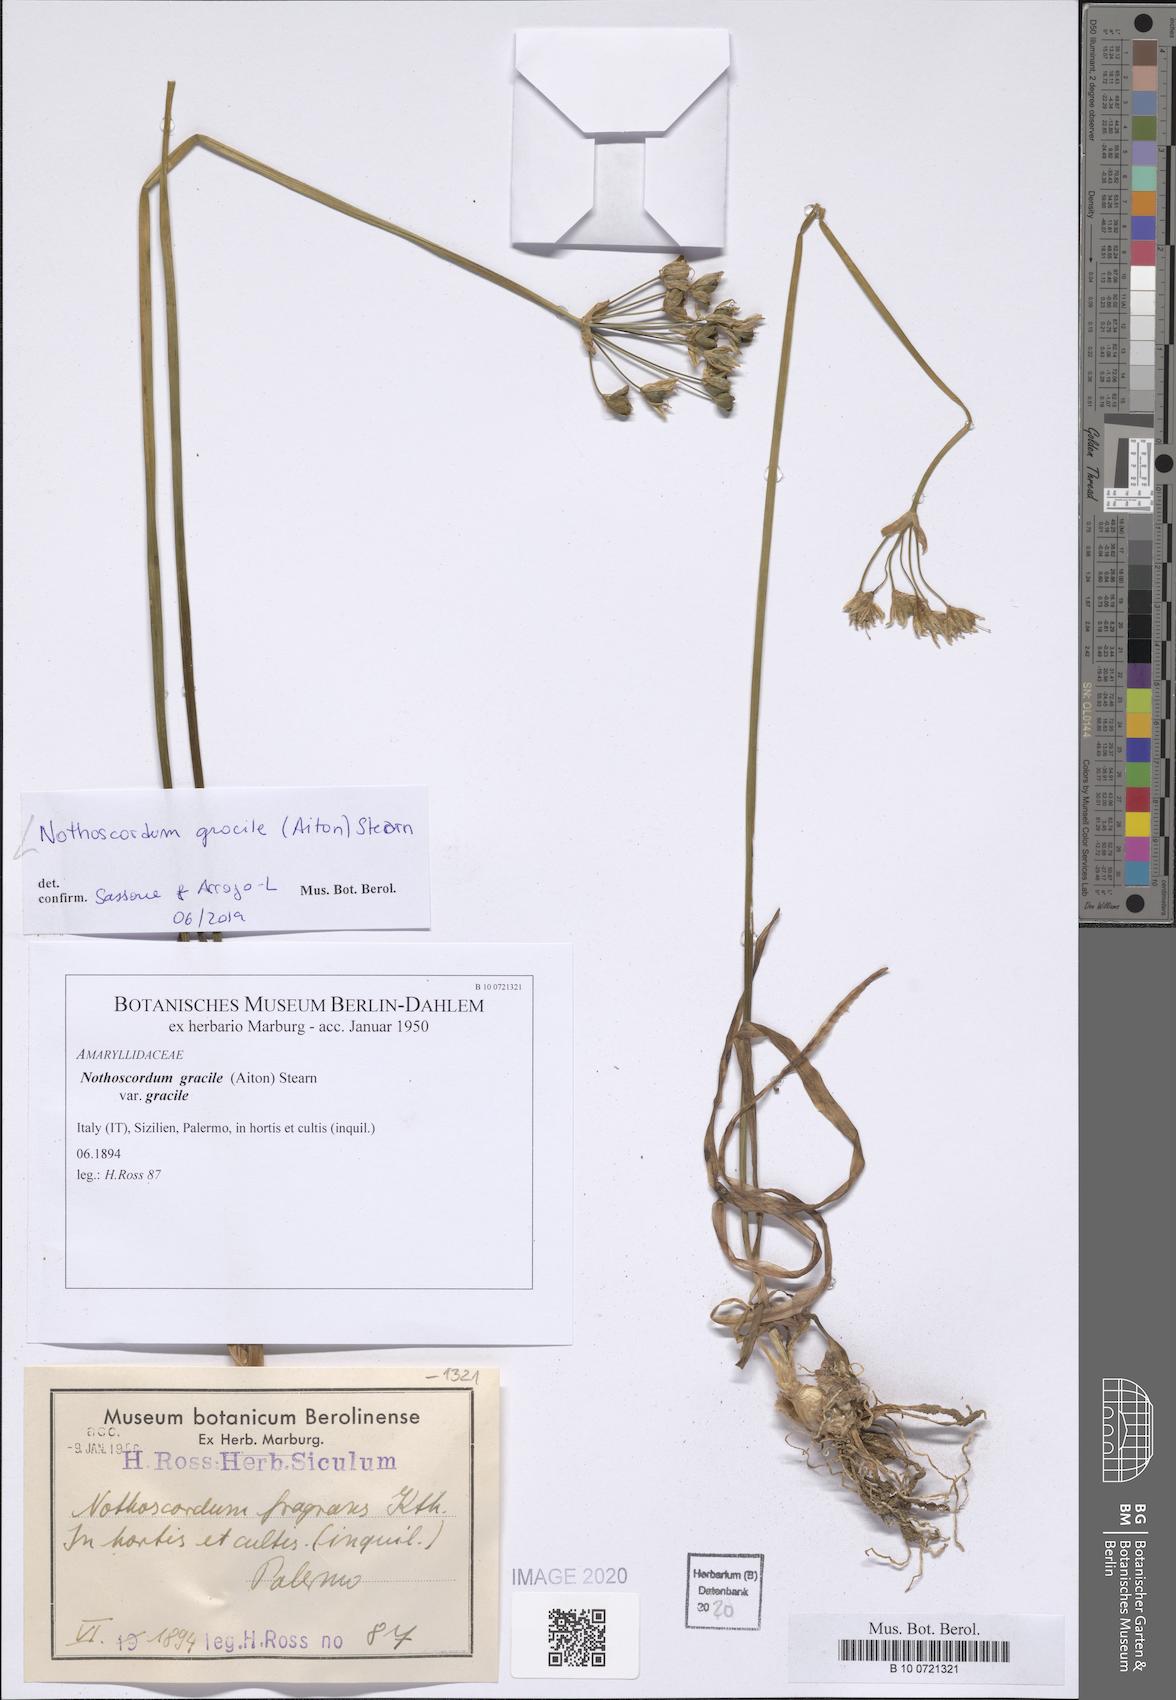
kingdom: Plantae
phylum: Tracheophyta
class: Liliopsida
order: Asparagales
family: Amaryllidaceae
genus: Nothoscordum
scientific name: Nothoscordum gracile
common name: Slender false garlic
